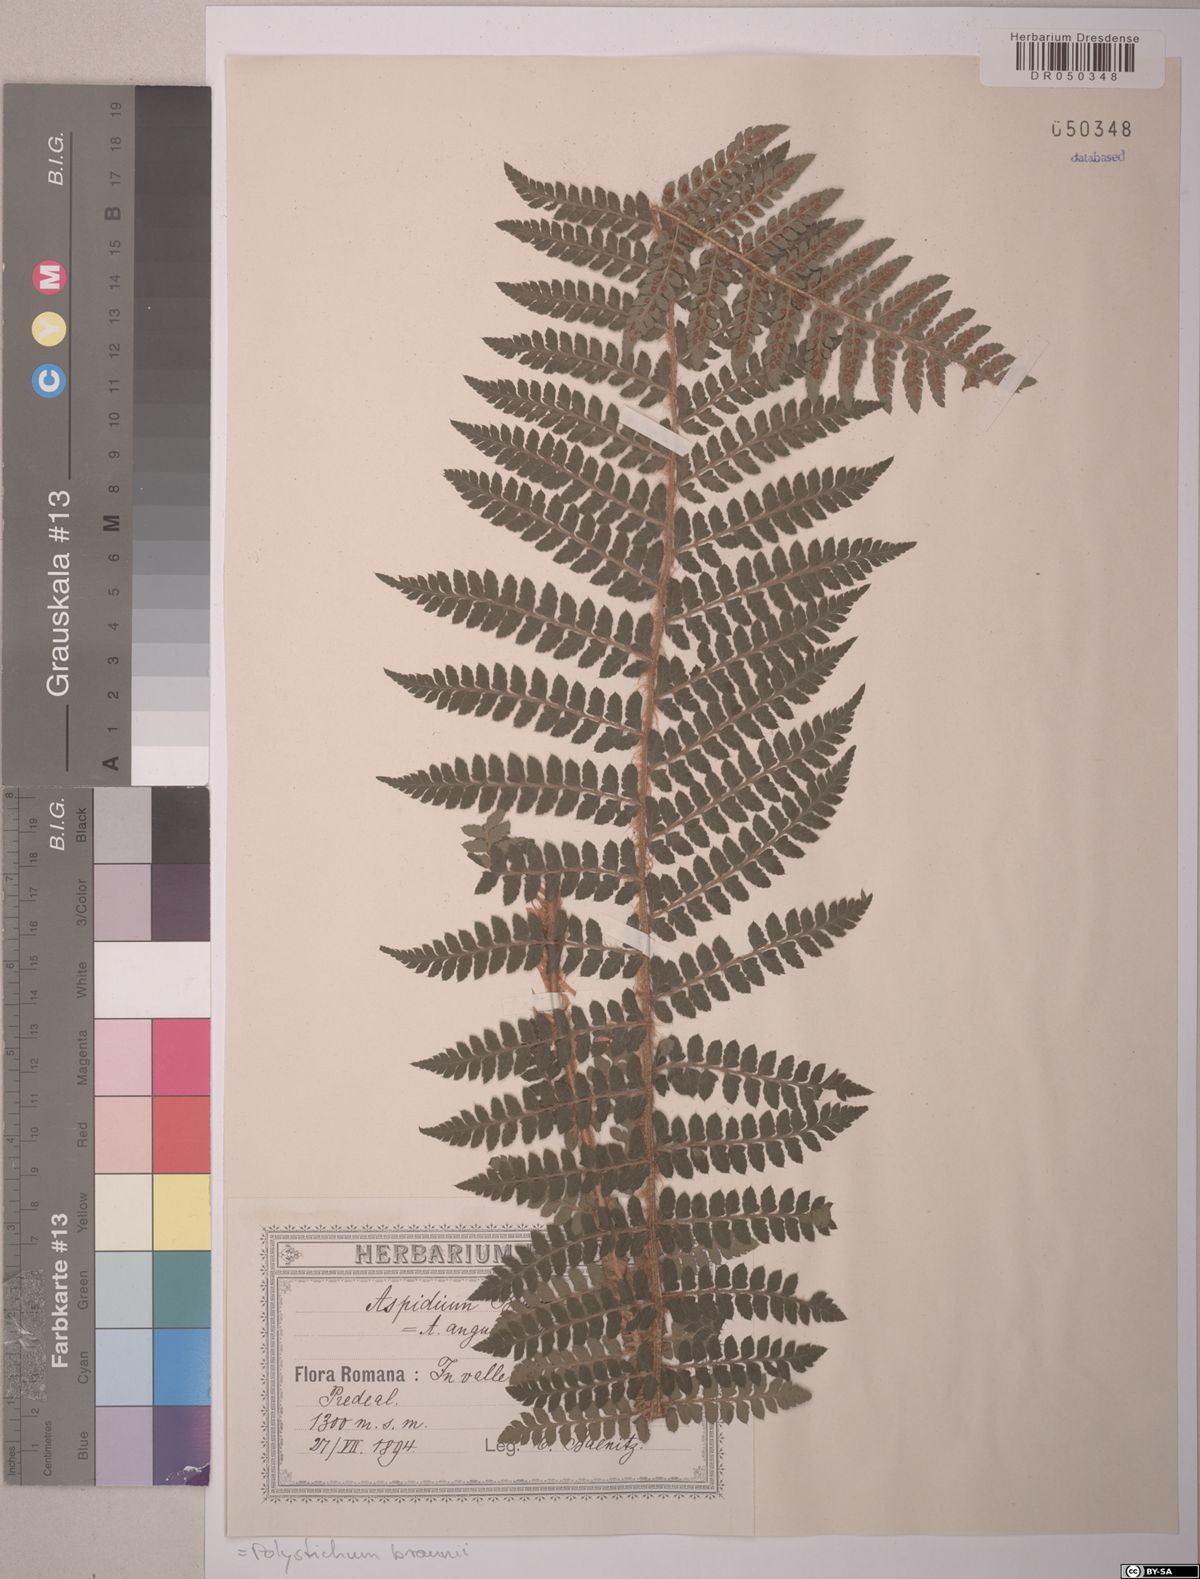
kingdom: Plantae
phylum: Tracheophyta
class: Polypodiopsida
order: Polypodiales
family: Dryopteridaceae
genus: Polystichum
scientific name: Polystichum braunii
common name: Braun's holly fern
